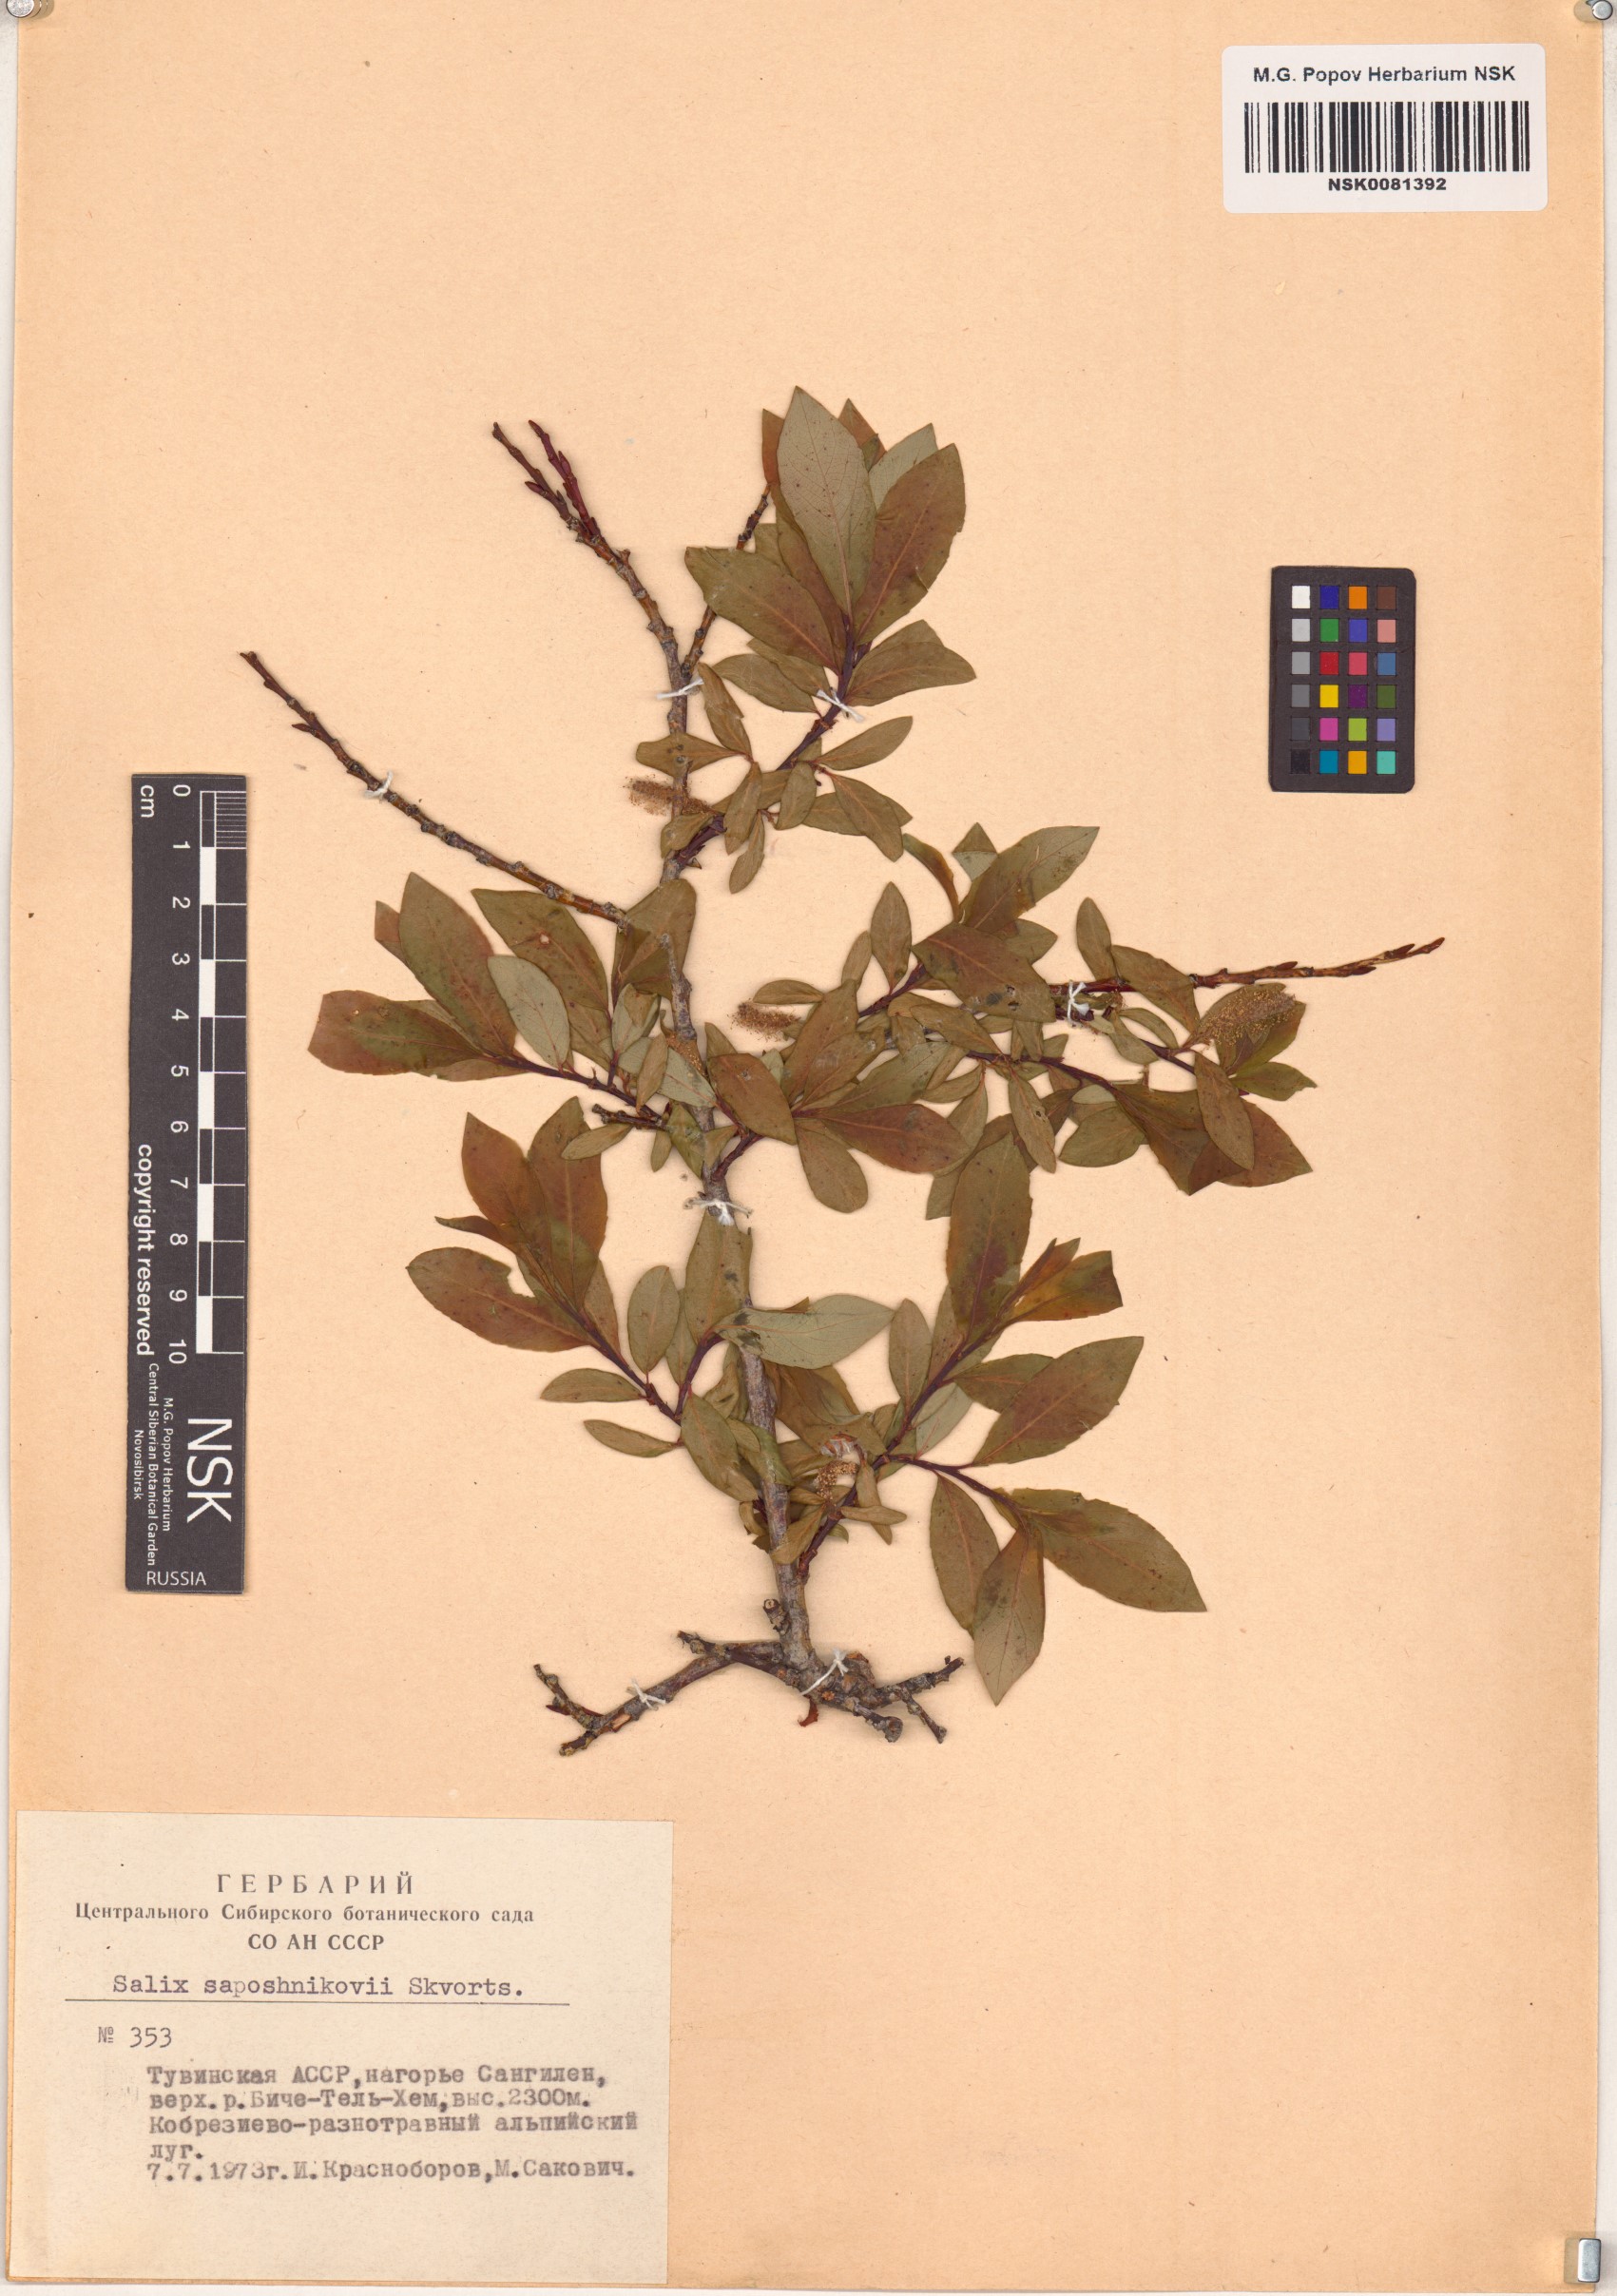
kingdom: Plantae
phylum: Tracheophyta
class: Magnoliopsida
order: Malpighiales
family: Salicaceae
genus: Salix
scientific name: Salix saposhnikovii
